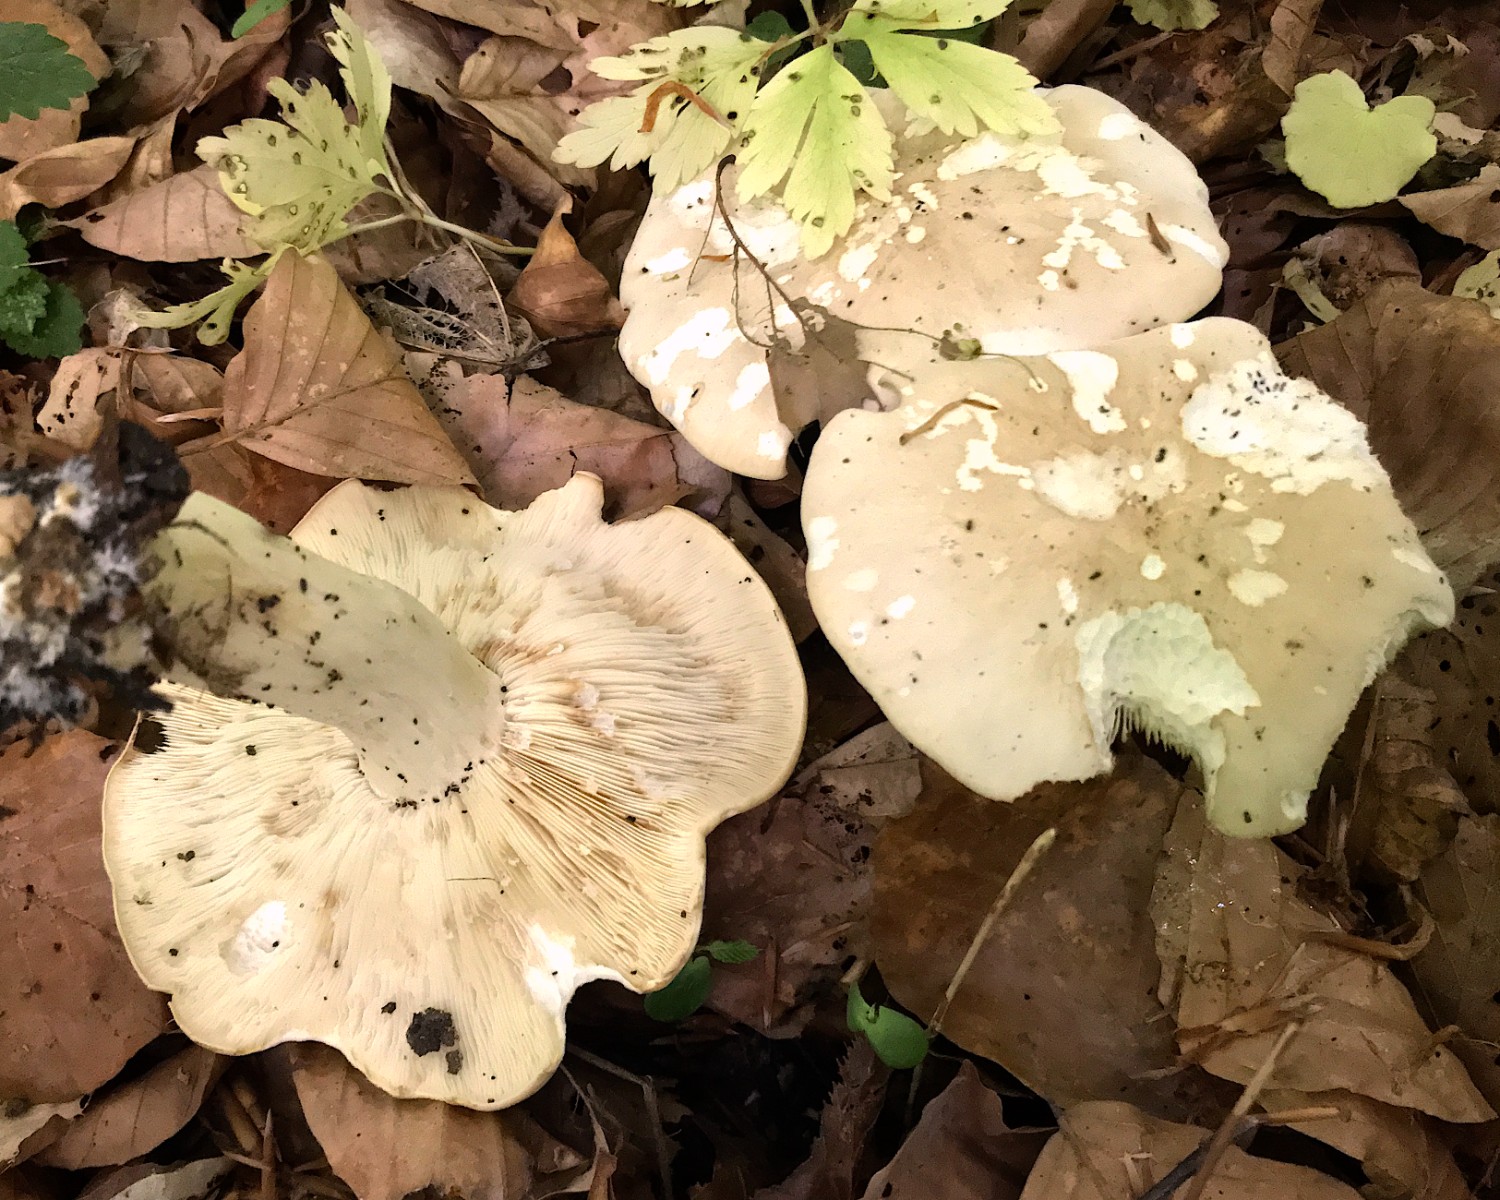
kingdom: Fungi
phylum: Basidiomycota
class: Agaricomycetes
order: Agaricales
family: Lyophyllaceae
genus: Calocybe
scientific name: Calocybe gambosa
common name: vårmusseron
